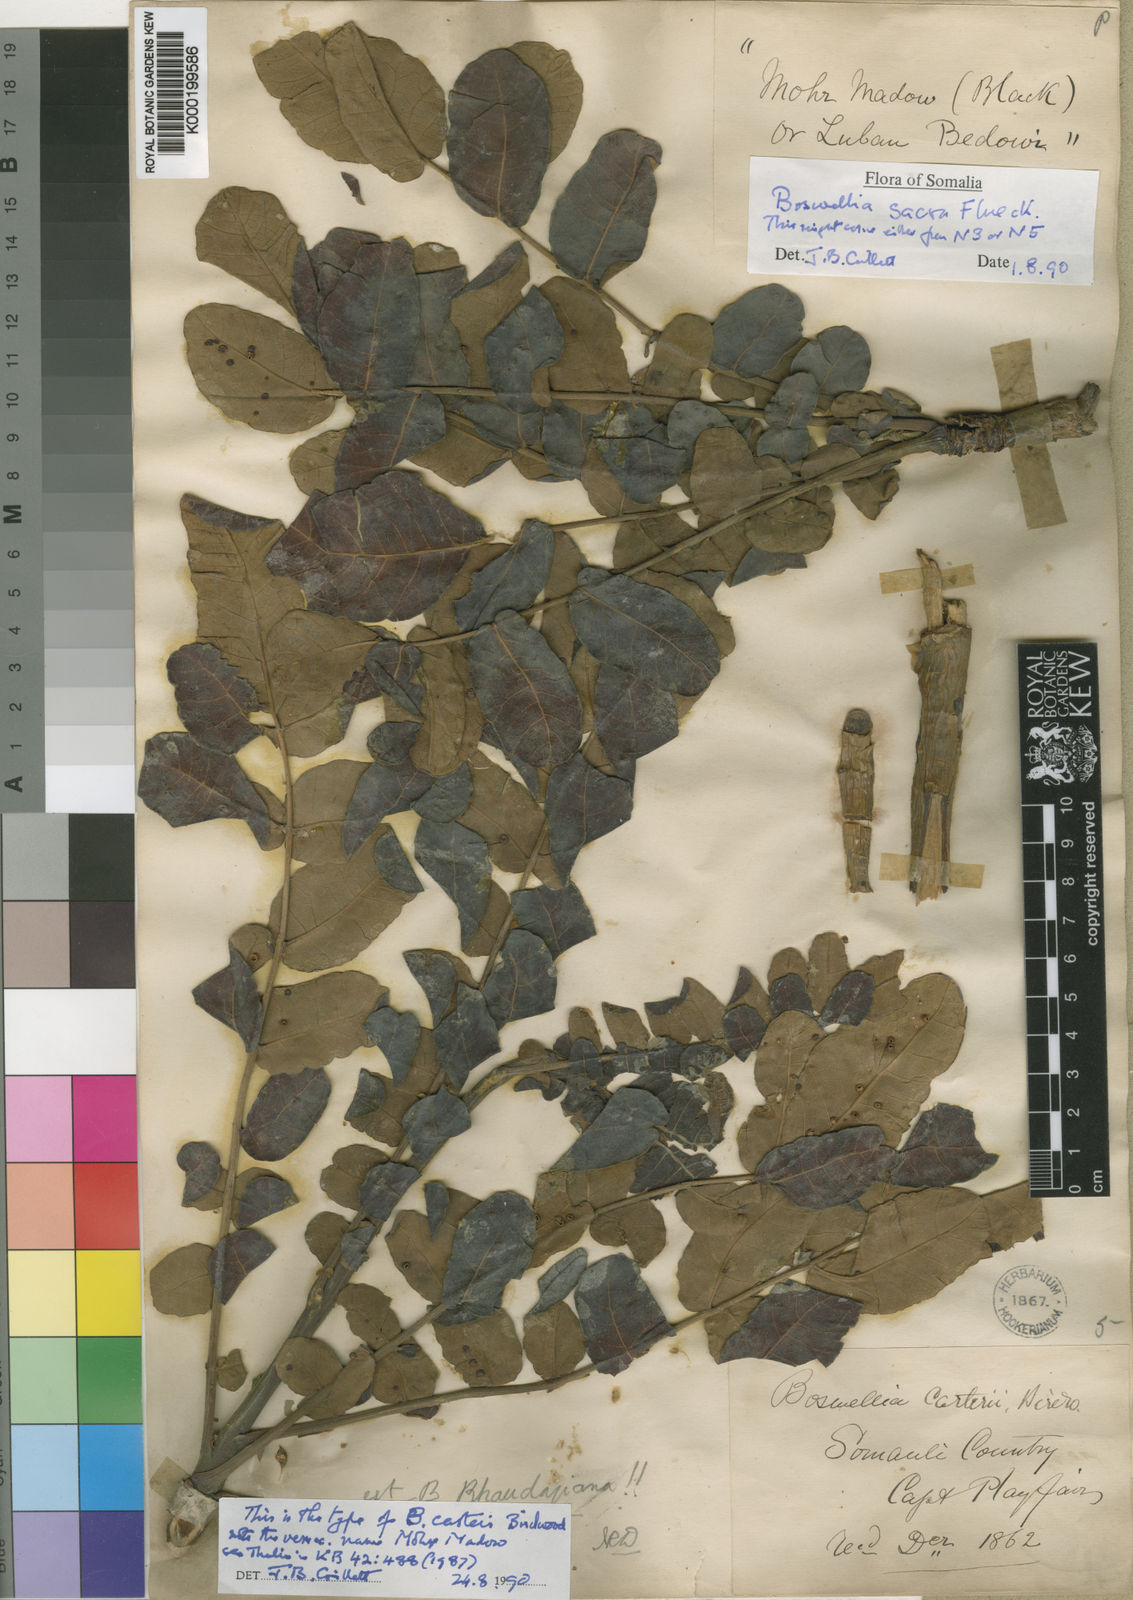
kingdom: Plantae
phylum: Tracheophyta
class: Magnoliopsida
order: Sapindales
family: Burseraceae
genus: Boswellia
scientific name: Boswellia sacra
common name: Olibanum-tree
